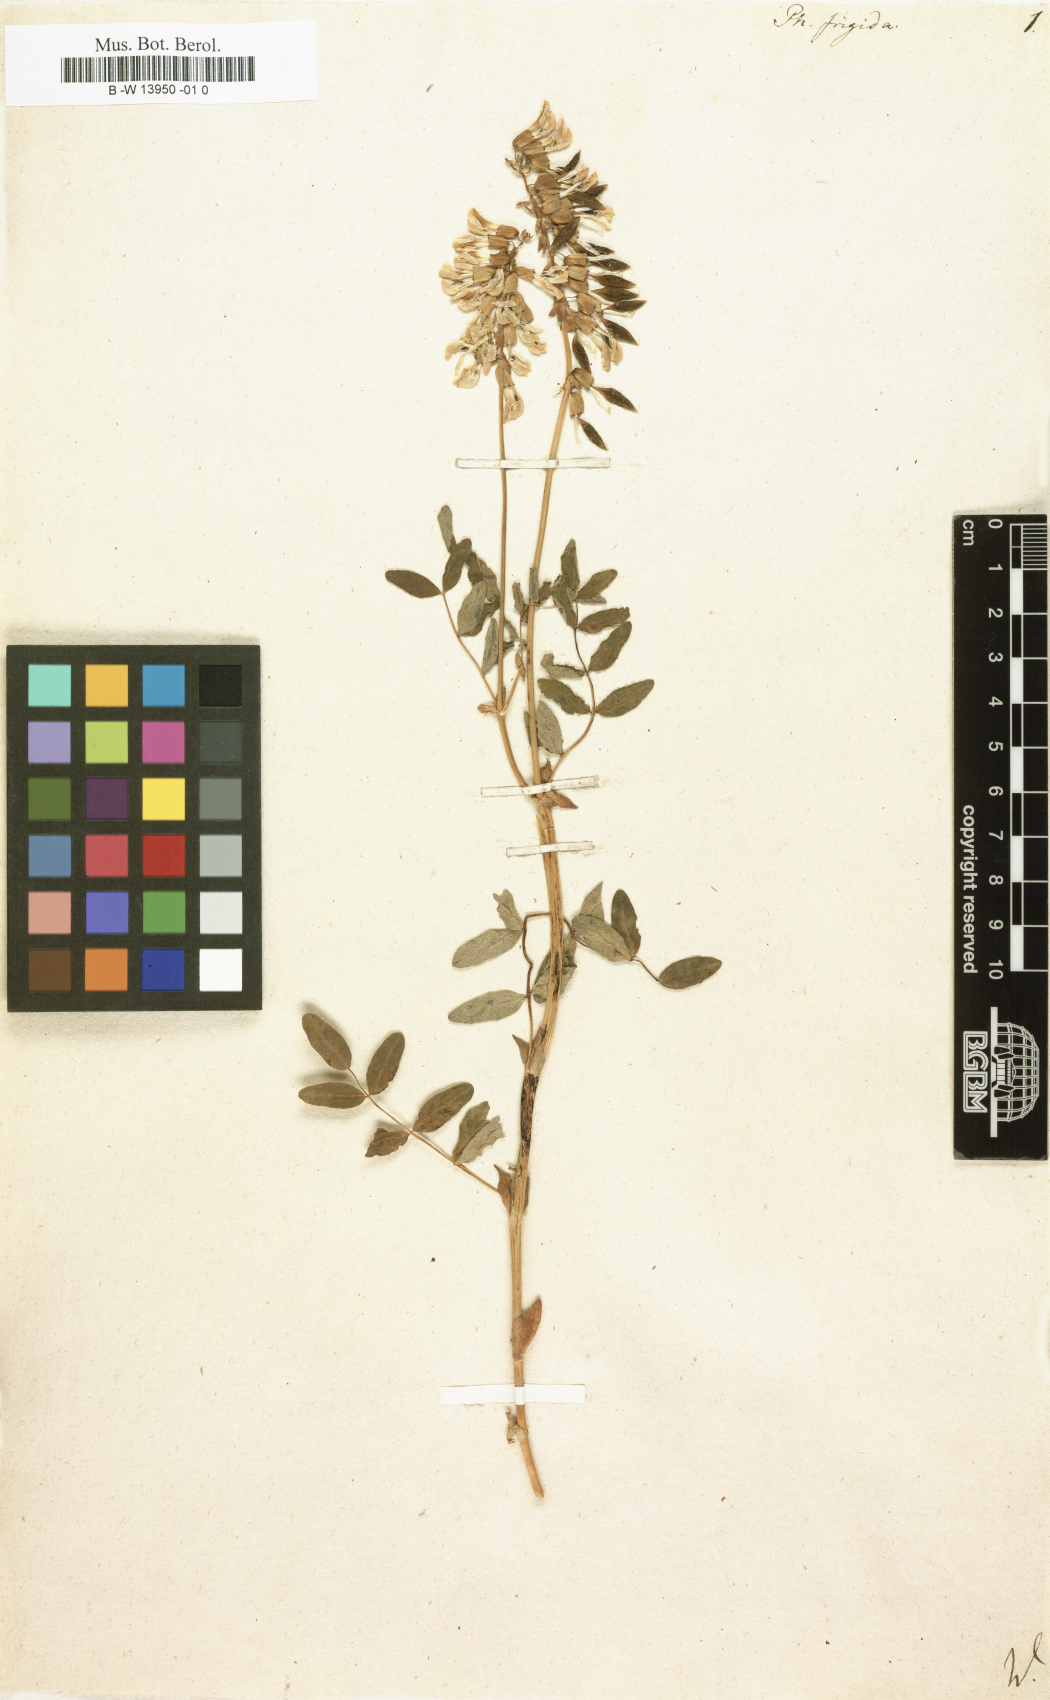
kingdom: Plantae
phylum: Tracheophyta
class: Magnoliopsida
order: Fabales
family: Fabaceae
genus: Astragalus
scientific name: Astragalus frigidus
